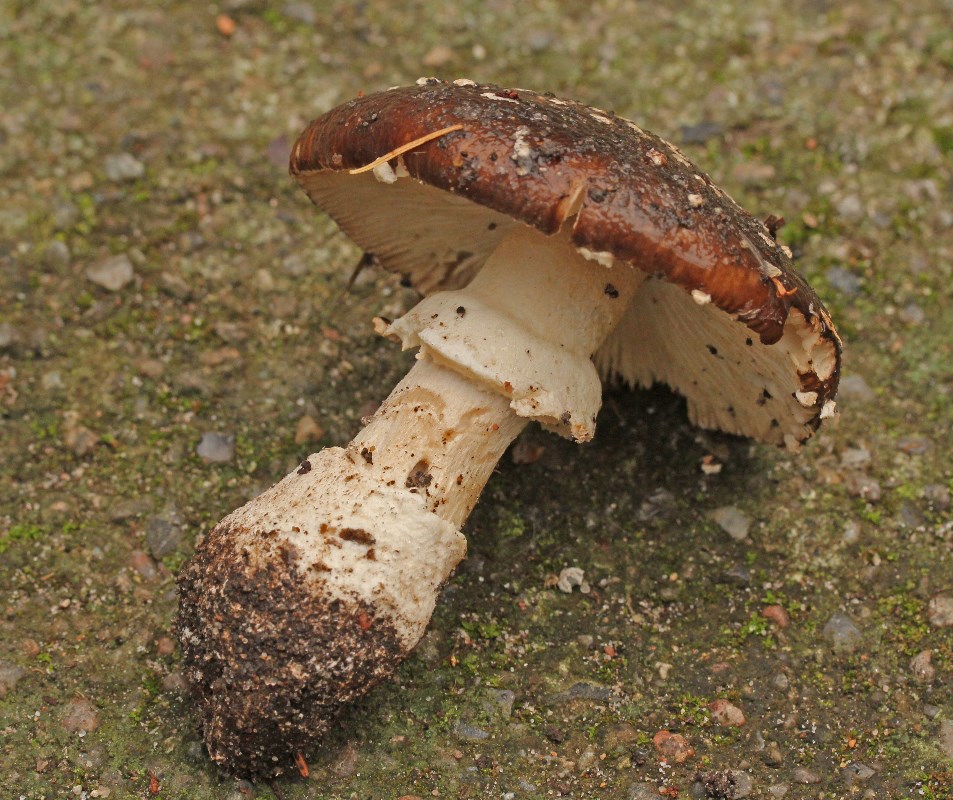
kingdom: Fungi
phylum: Basidiomycota
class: Agaricomycetes
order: Agaricales
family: Amanitaceae
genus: Amanita
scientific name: Amanita pantherina
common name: panter-fluesvamp
